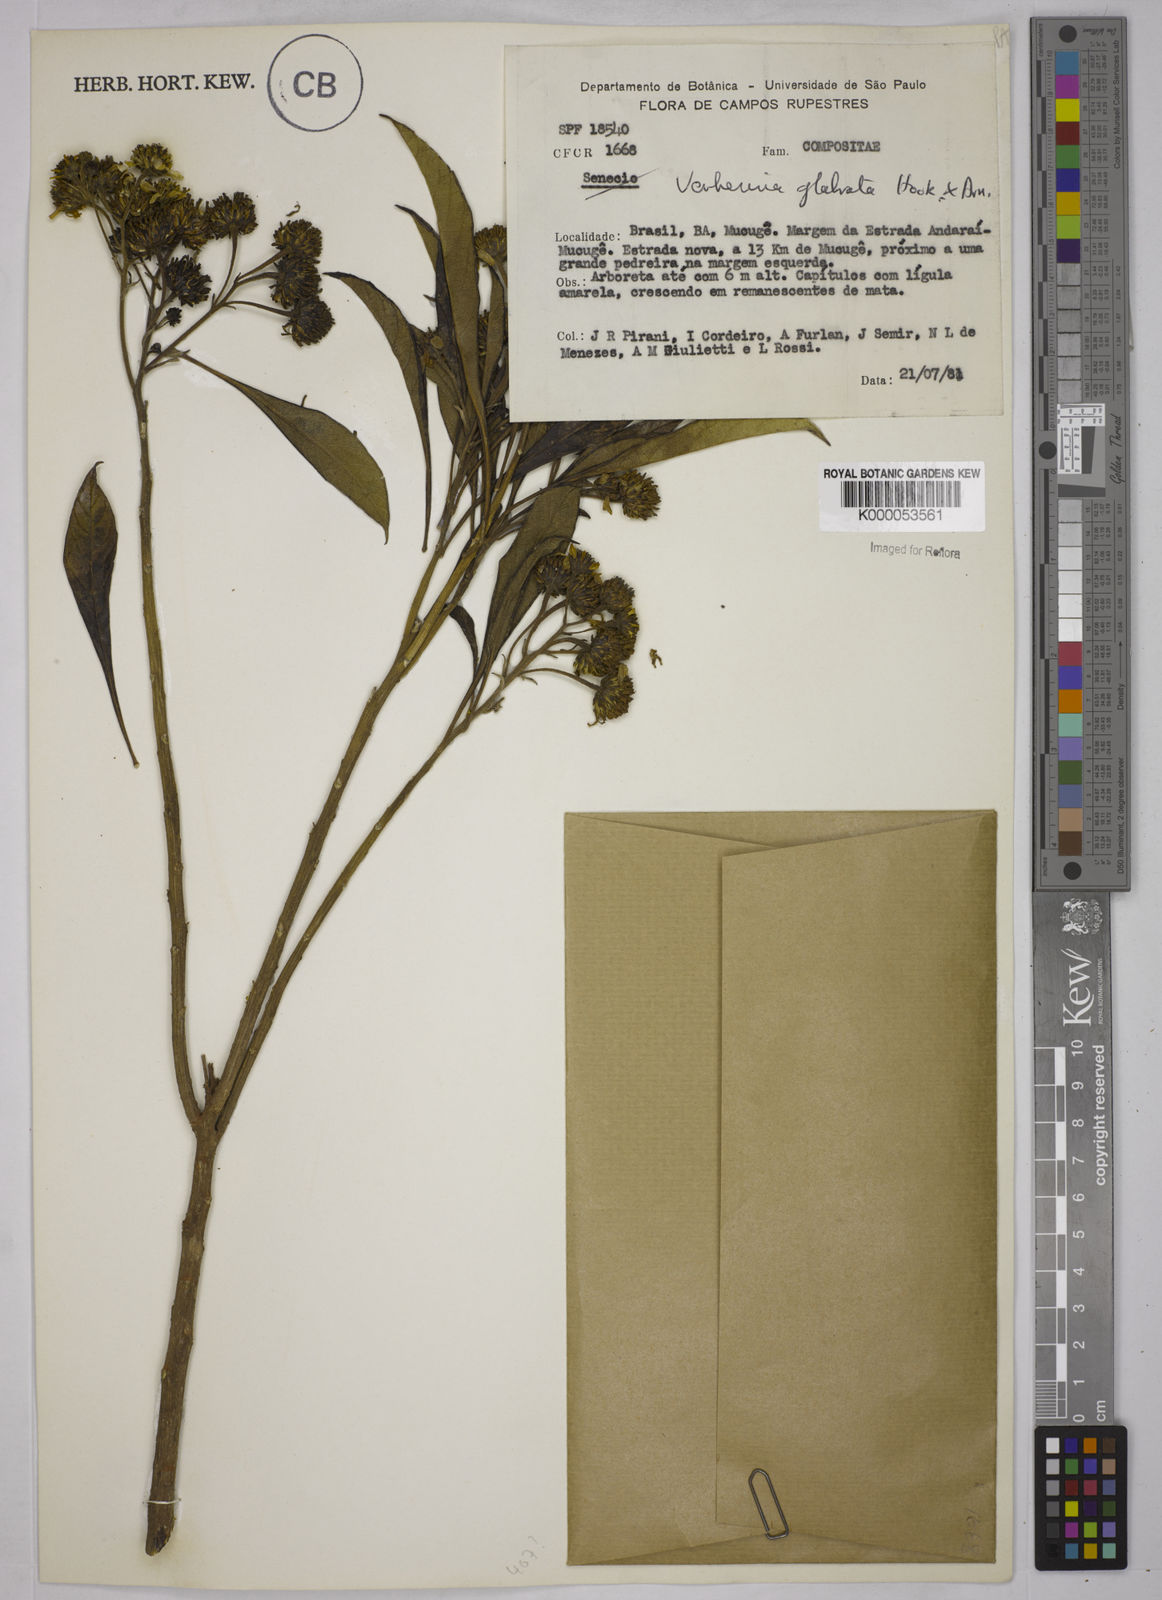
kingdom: Plantae
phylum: Tracheophyta
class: Magnoliopsida
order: Asterales
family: Asteraceae
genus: Verbesina
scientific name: Verbesina glabrata
